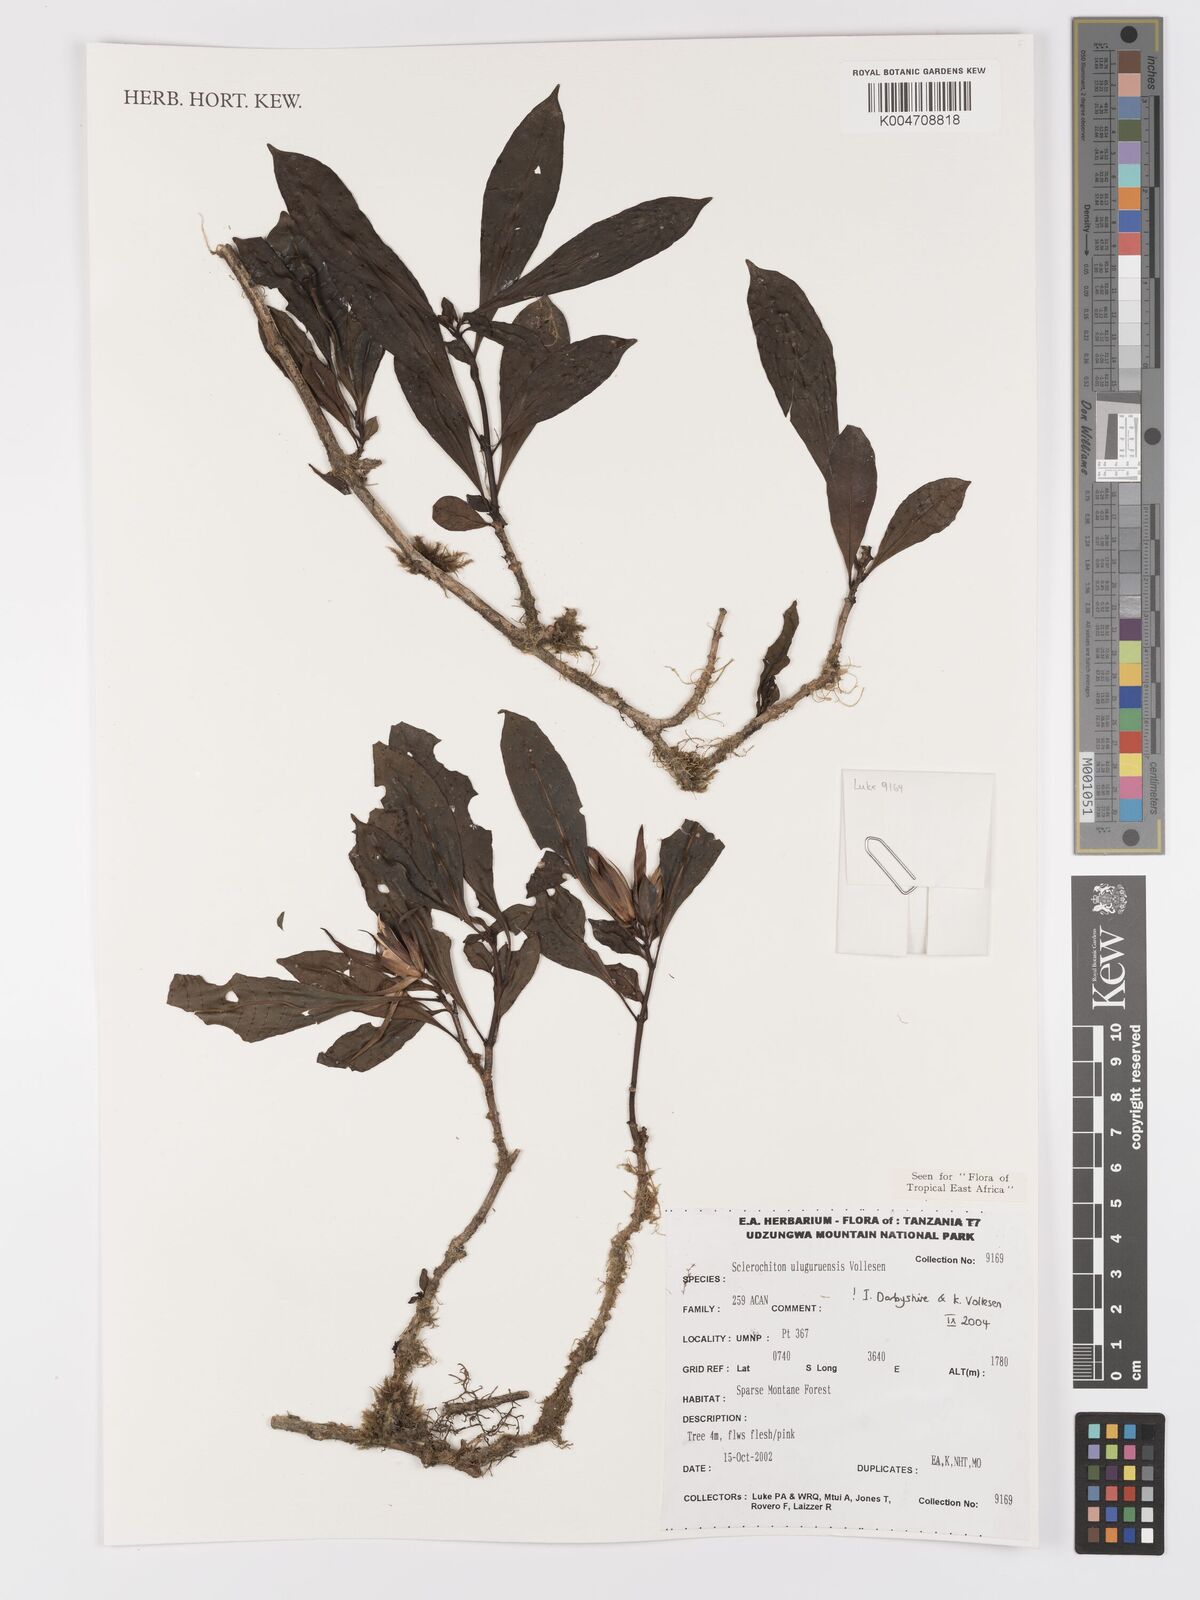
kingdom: Plantae
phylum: Tracheophyta
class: Magnoliopsida
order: Lamiales
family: Acanthaceae
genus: Sclerochiton
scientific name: Sclerochiton uluguruensis
